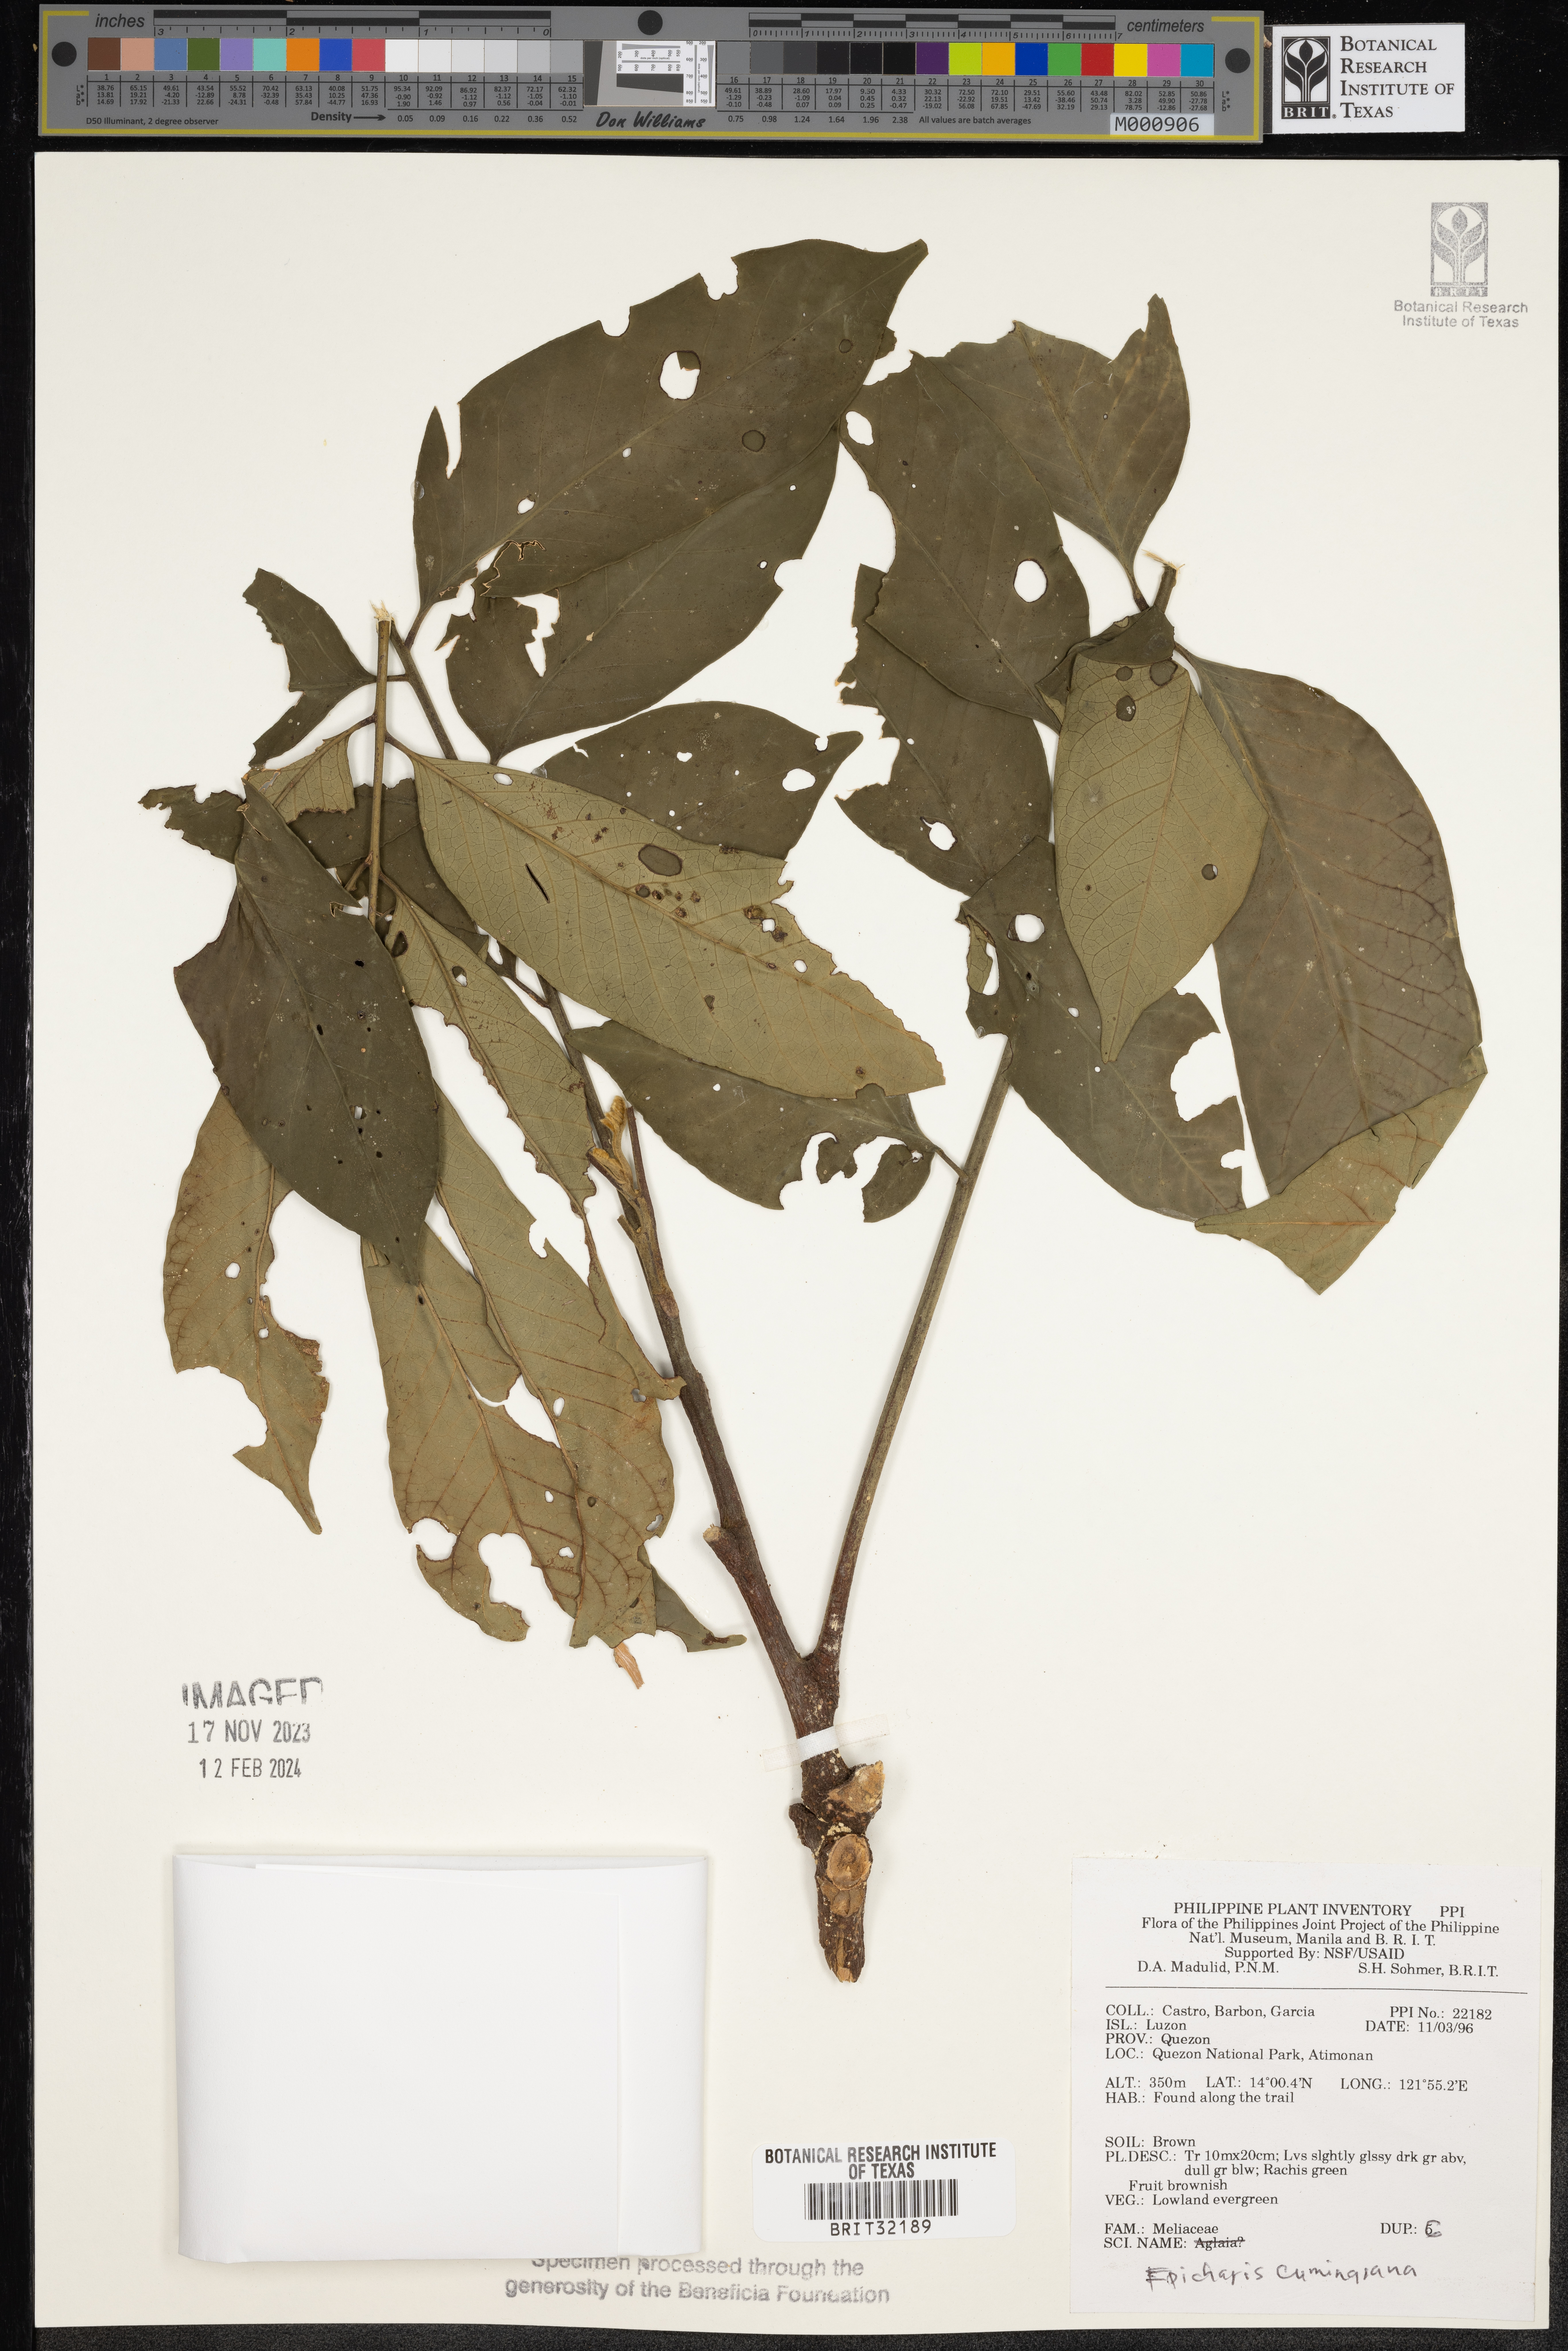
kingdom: Plantae
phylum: Tracheophyta
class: Magnoliopsida
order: Sapindales
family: Meliaceae
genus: Epicharis
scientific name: Epicharis cumingiana
